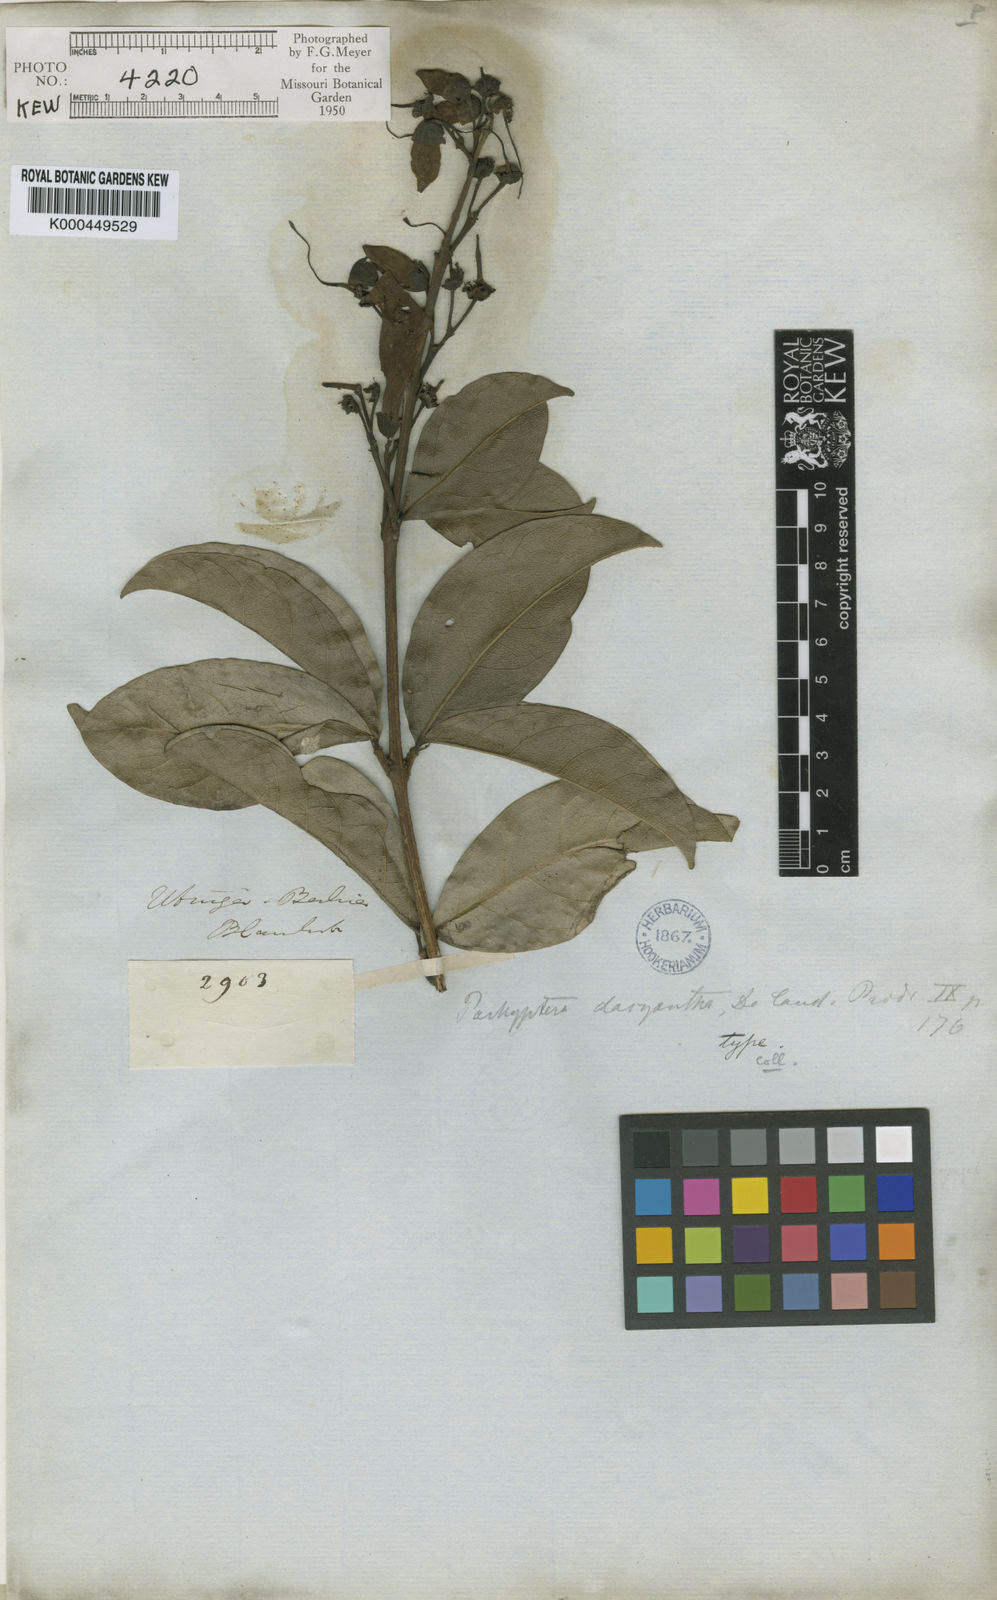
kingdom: Plantae
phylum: Tracheophyta
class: Magnoliopsida
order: Lamiales
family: Bignoniaceae
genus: Tanaecium
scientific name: Tanaecium pyramidatum
